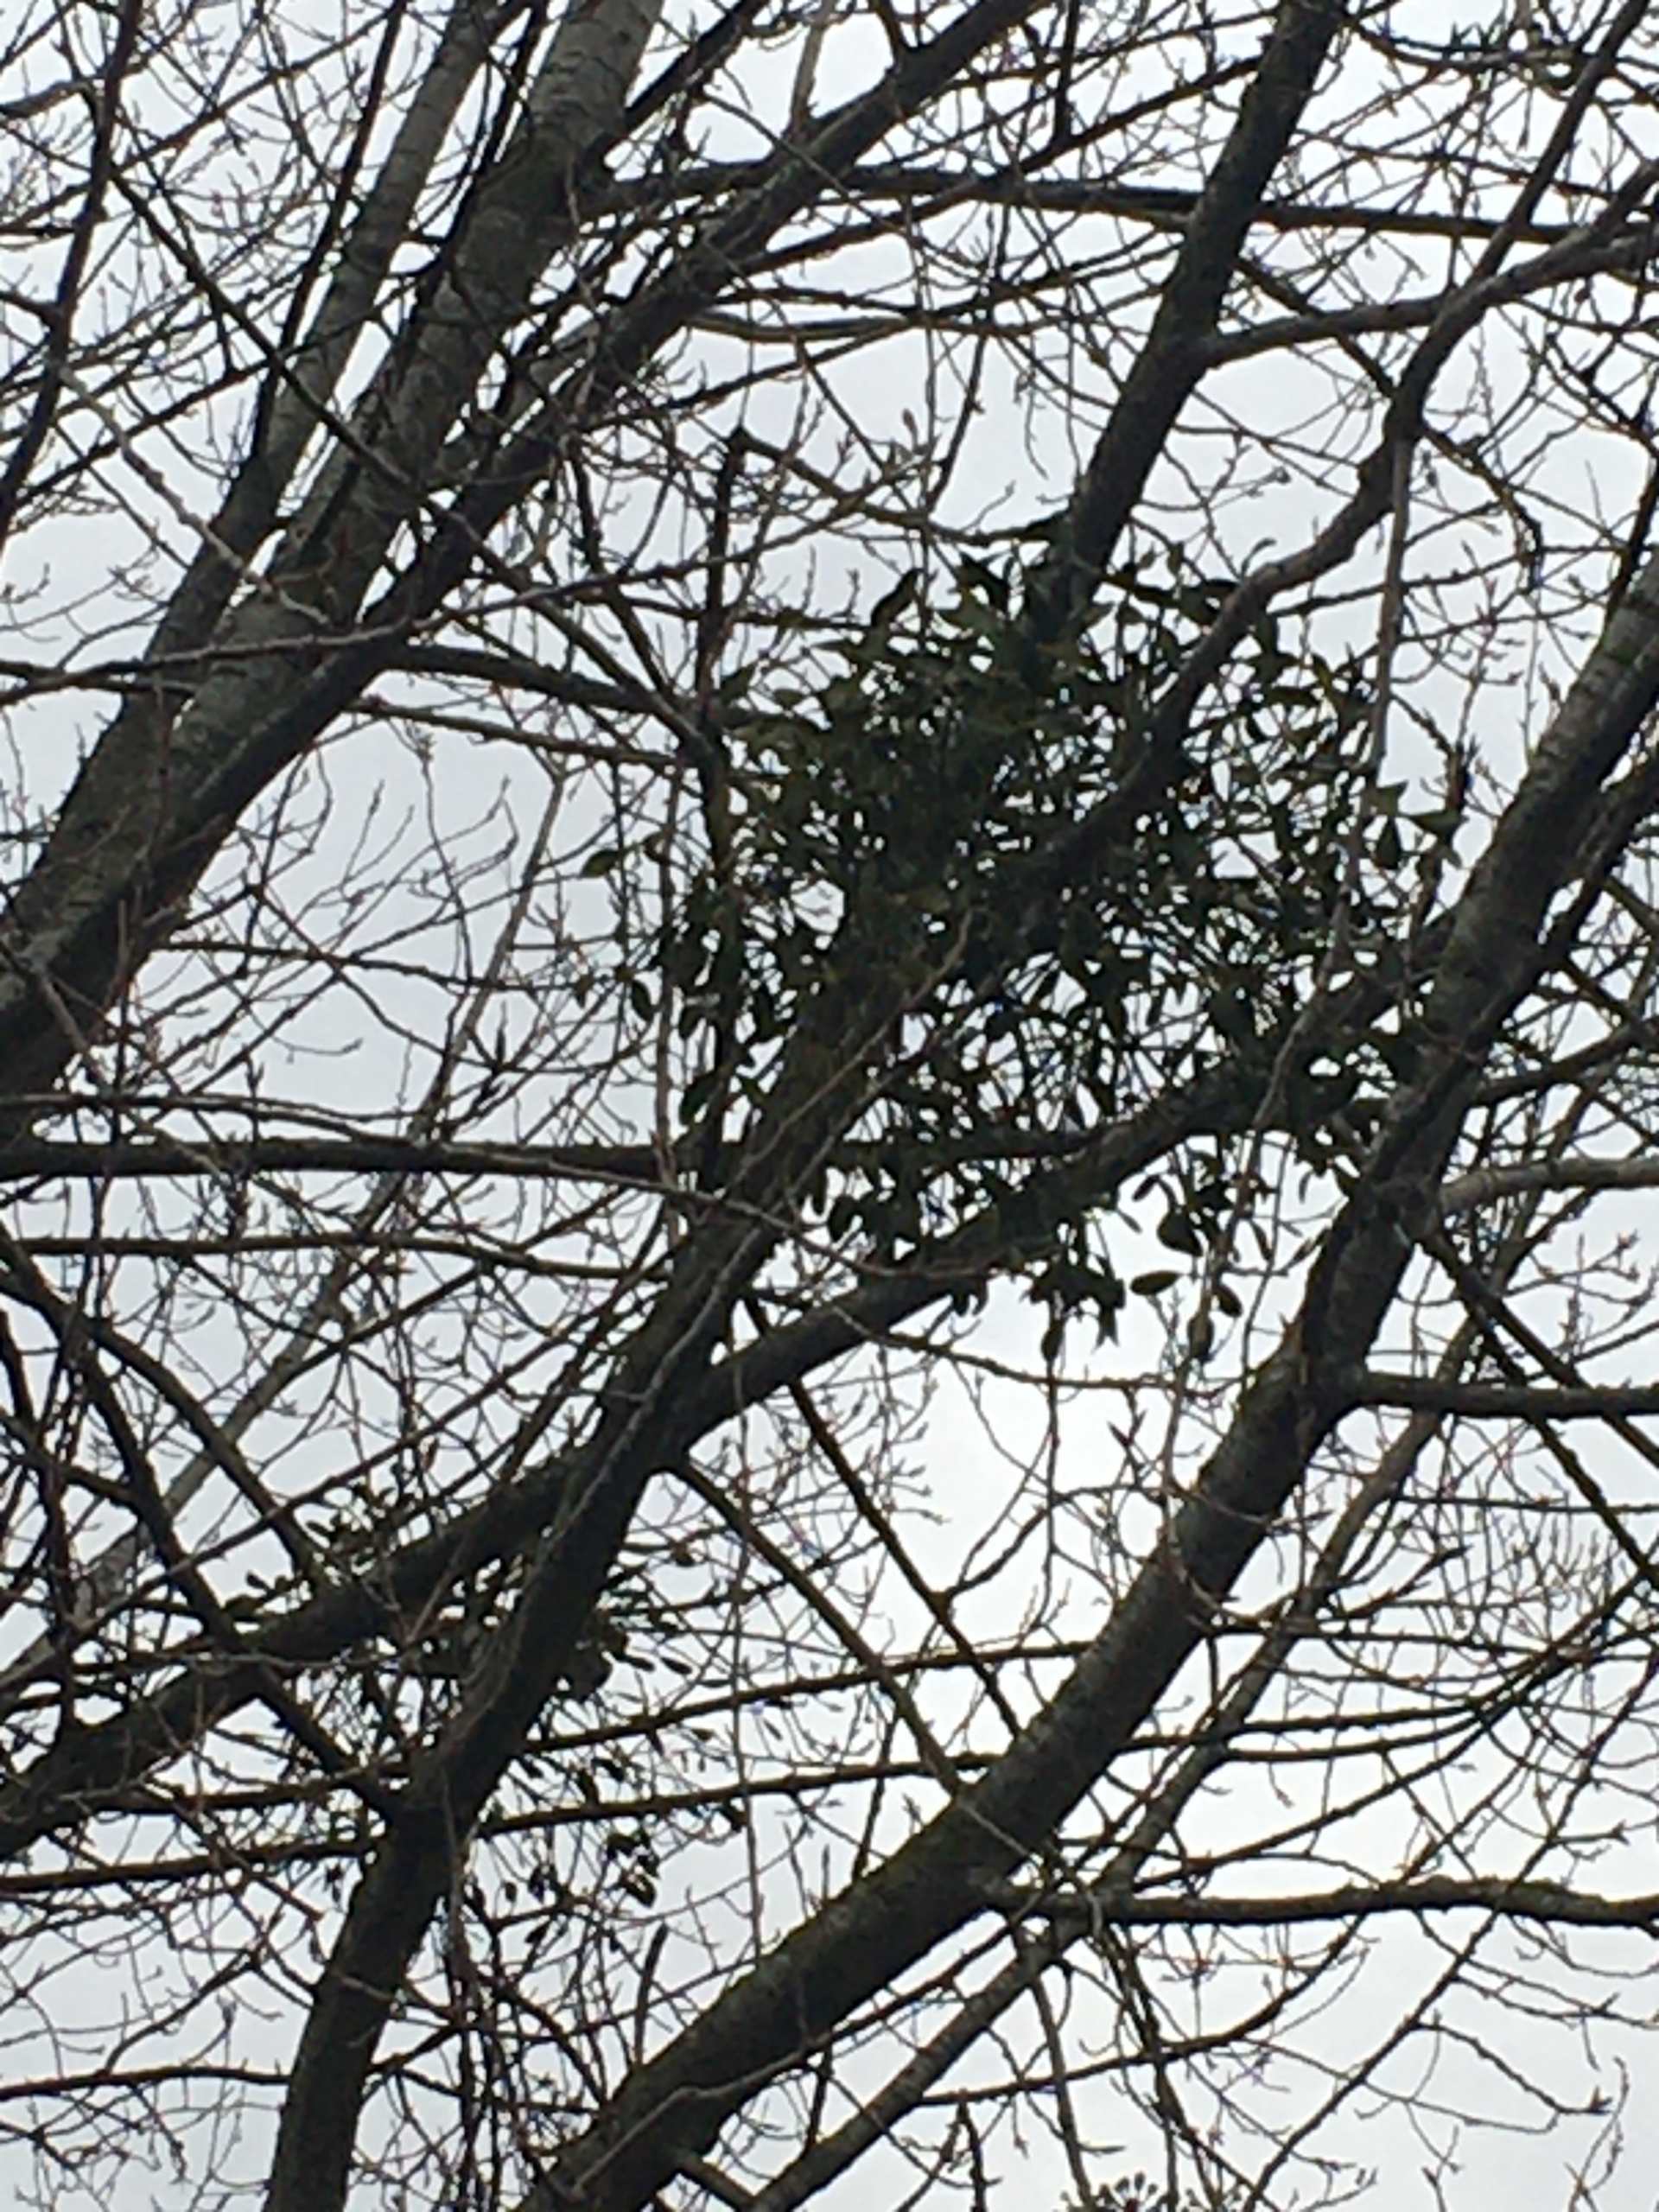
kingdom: Plantae
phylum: Tracheophyta
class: Magnoliopsida
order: Santalales
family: Viscaceae
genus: Viscum
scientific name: Viscum album
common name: Mistelten
